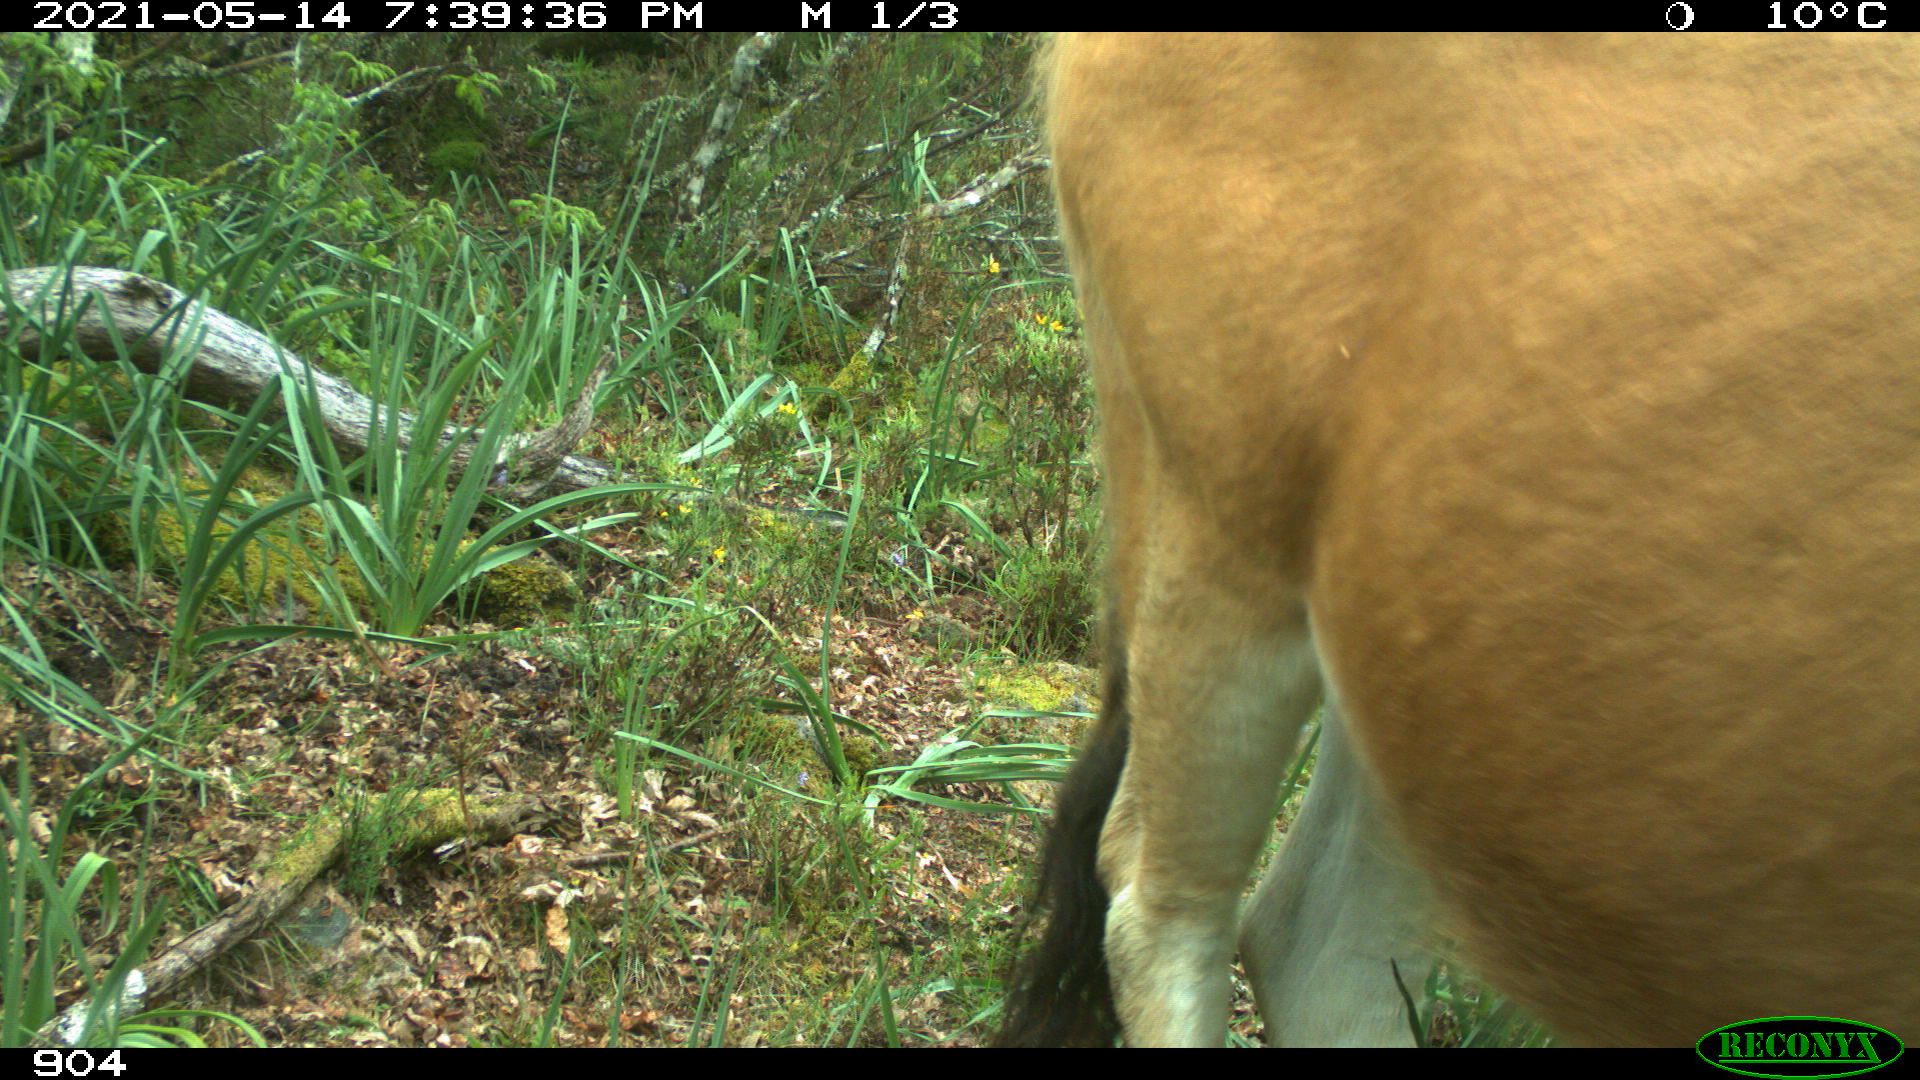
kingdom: Animalia
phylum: Chordata
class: Mammalia
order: Artiodactyla
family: Bovidae
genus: Bos
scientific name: Bos taurus
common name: Domesticated cattle
